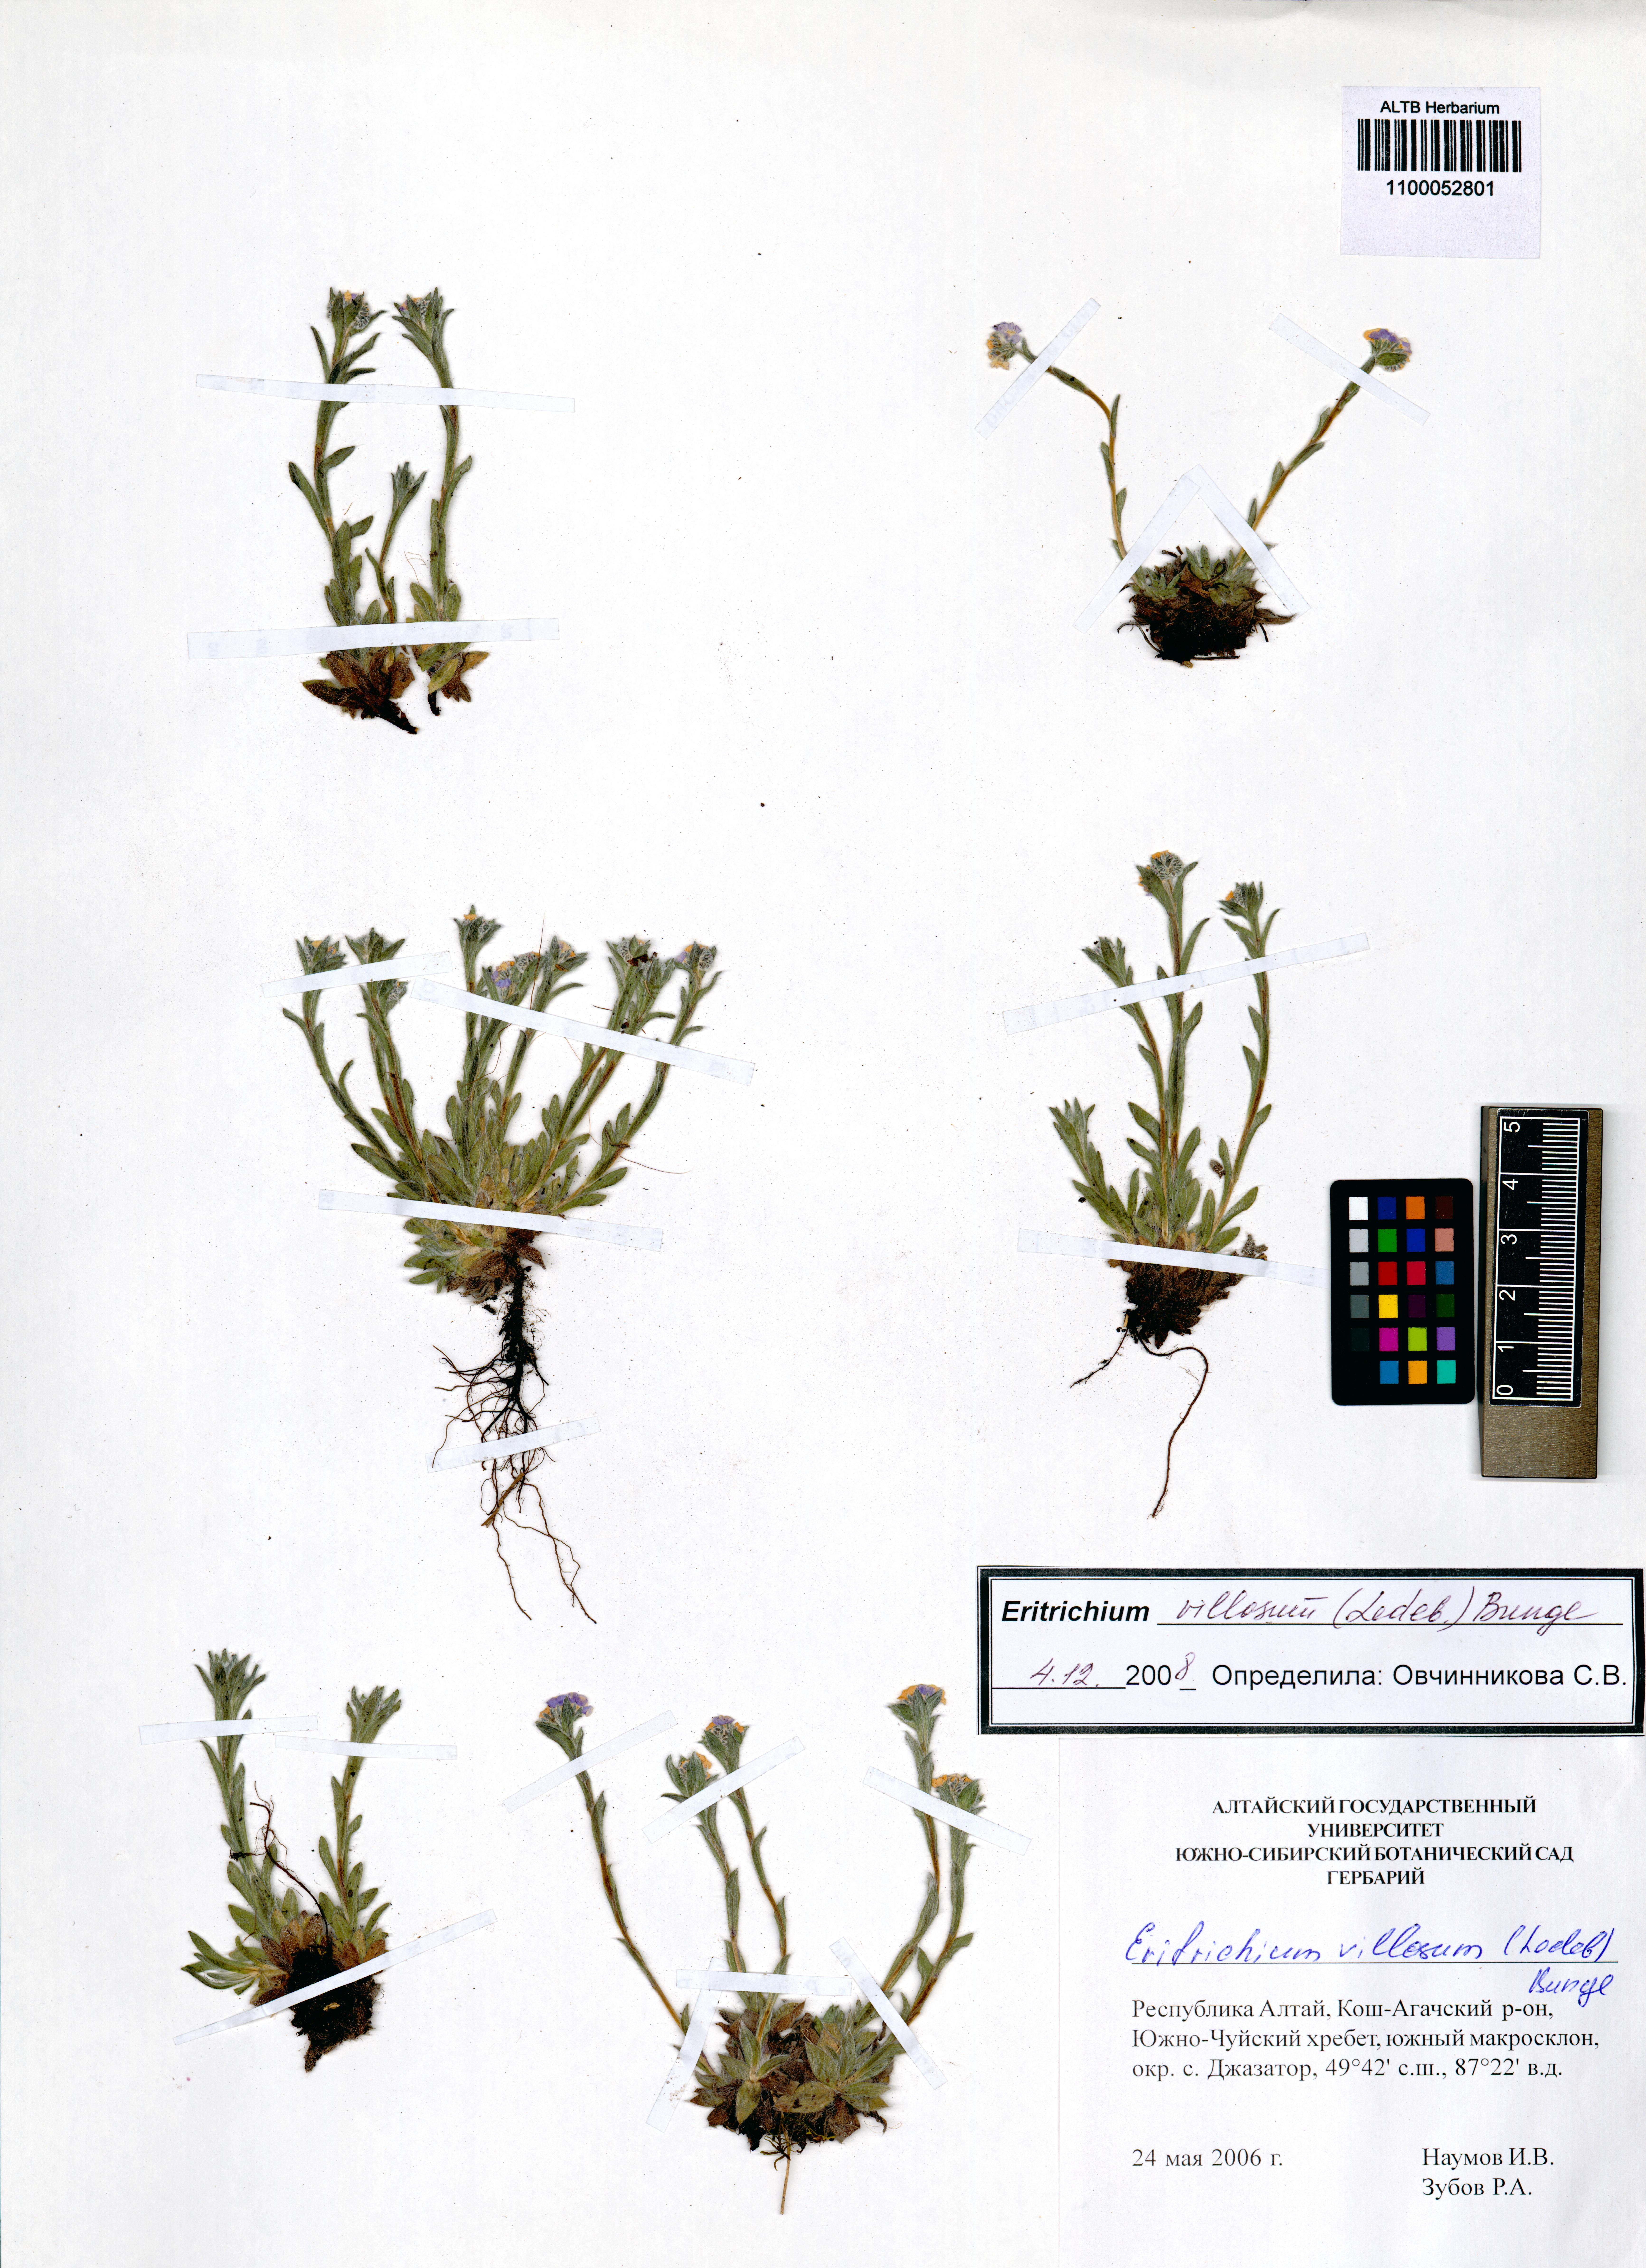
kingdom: Plantae
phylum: Tracheophyta
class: Magnoliopsida
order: Boraginales
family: Boraginaceae
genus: Eritrichium
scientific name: Eritrichium villosum
